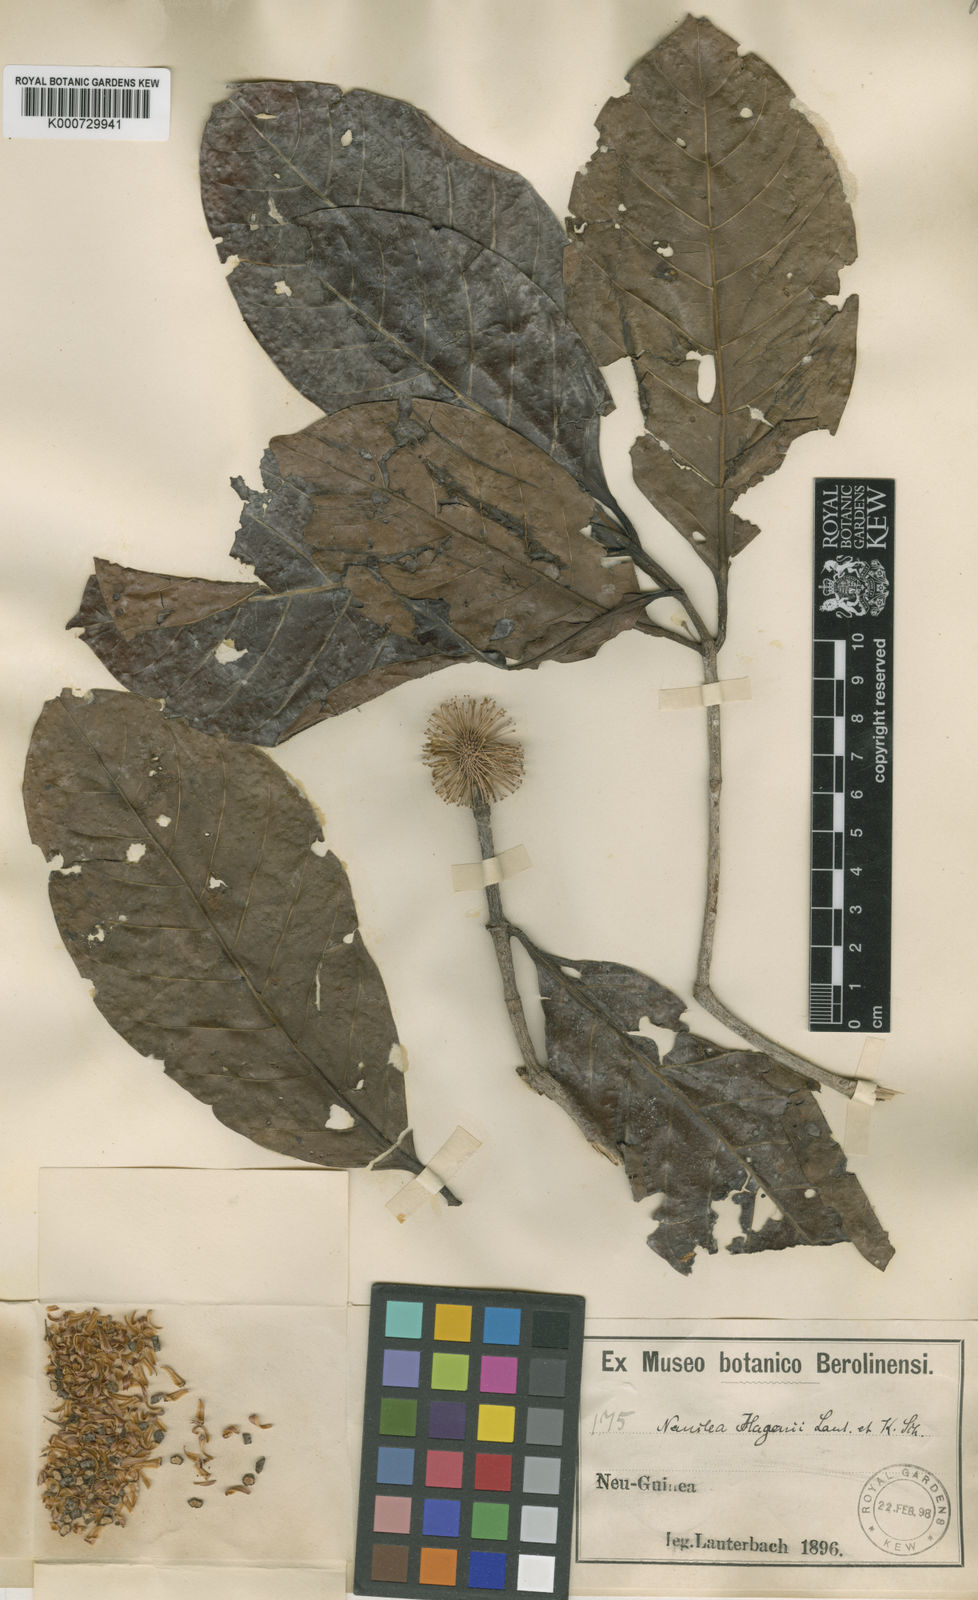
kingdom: Plantae
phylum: Tracheophyta
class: Magnoliopsida
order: Gentianales
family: Rubiaceae
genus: Neonauclea
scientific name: Neonauclea hagenii
